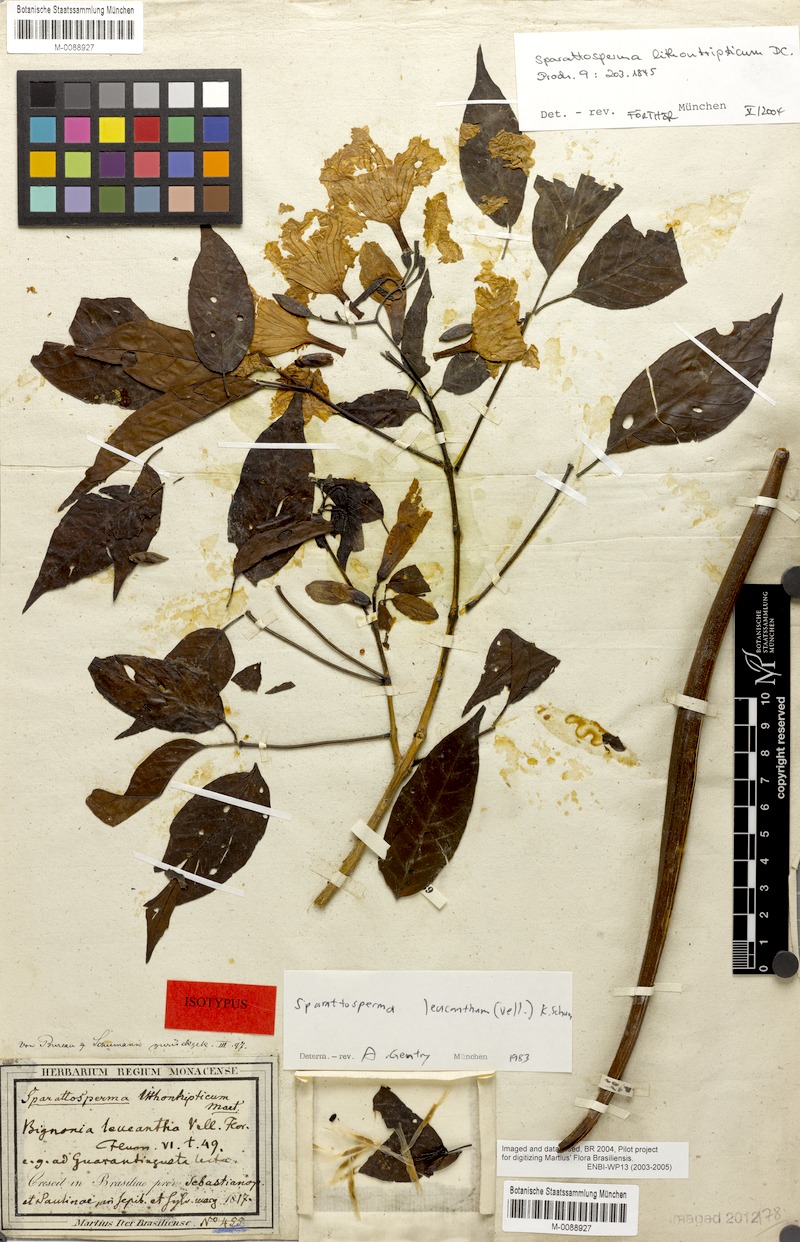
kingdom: Plantae
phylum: Tracheophyta
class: Magnoliopsida
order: Lamiales
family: Bignoniaceae
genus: Sparattosperma
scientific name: Sparattosperma leucanthum
